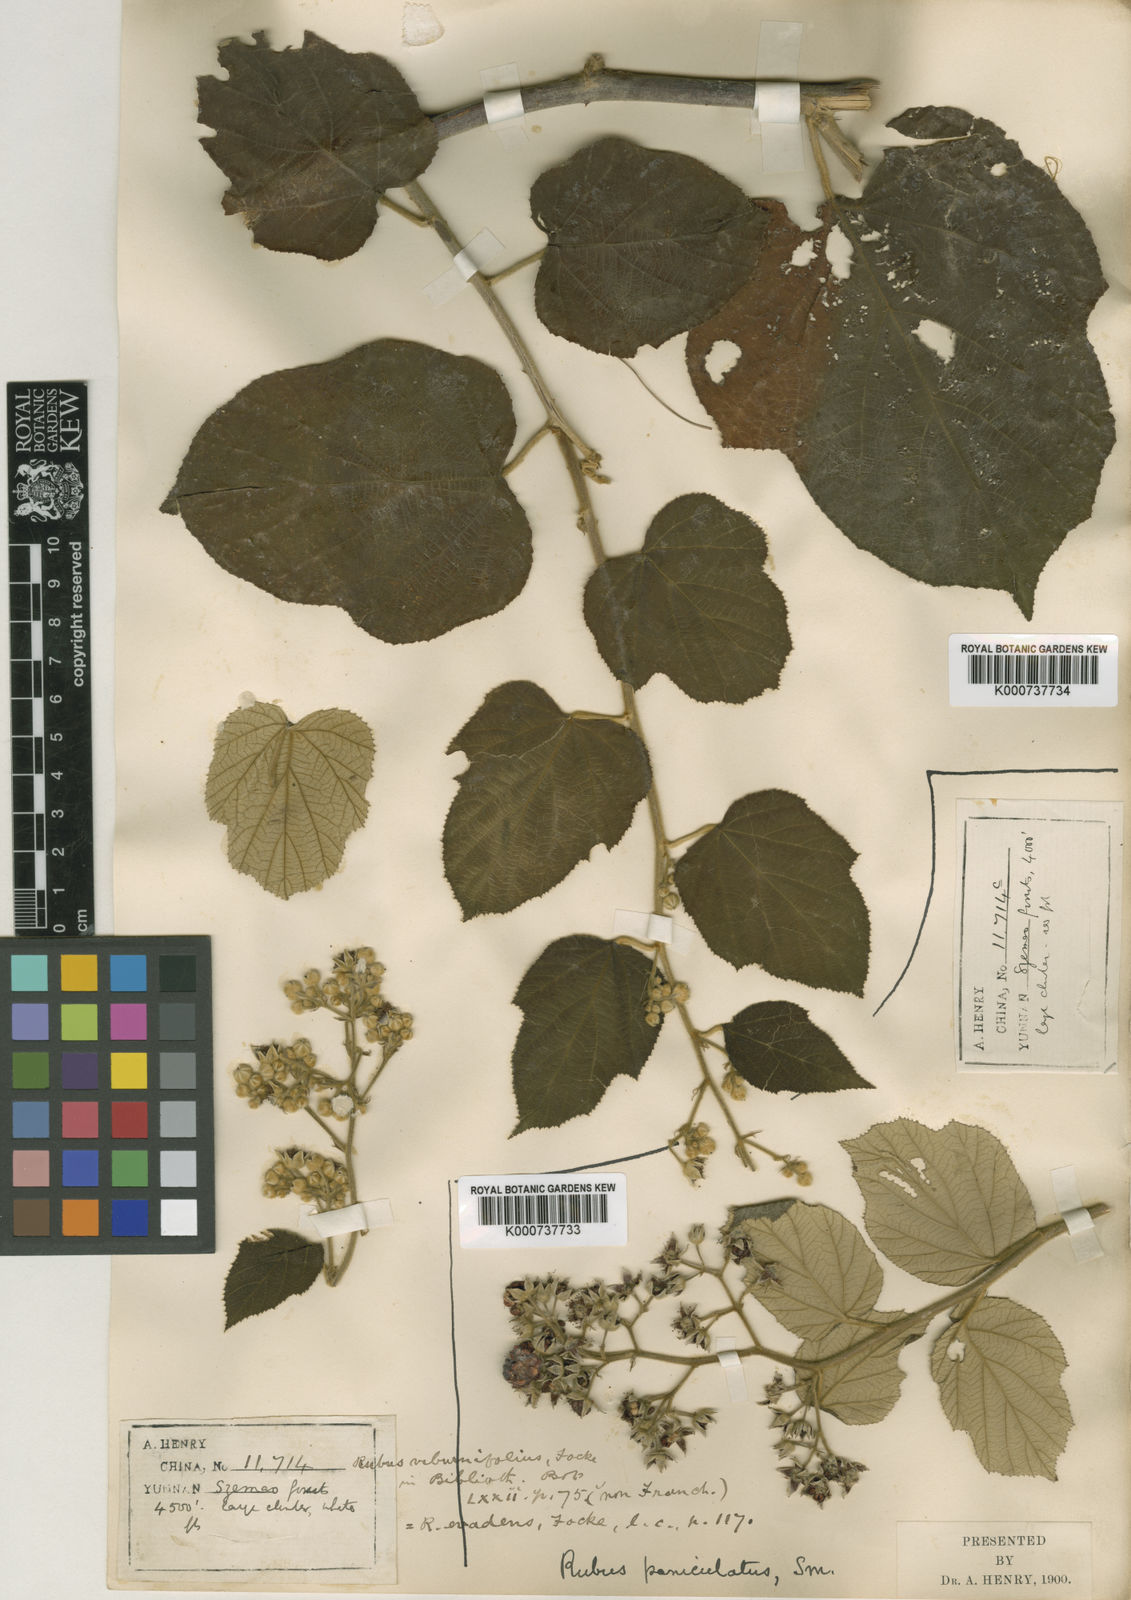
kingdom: Plantae
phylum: Tracheophyta
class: Magnoliopsida
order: Rosales
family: Rosaceae
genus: Rubus
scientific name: Rubus evadens
